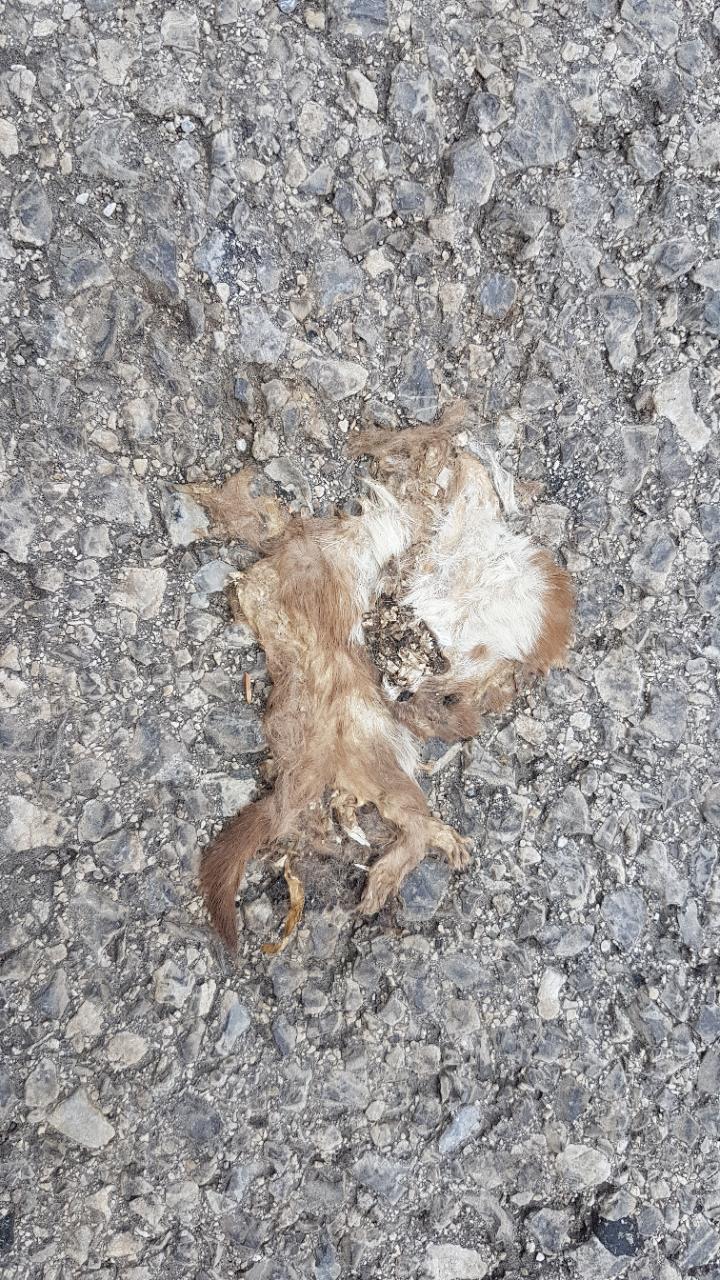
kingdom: Animalia
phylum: Chordata
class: Mammalia
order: Carnivora
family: Mustelidae
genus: Mustela
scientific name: Mustela nivalis
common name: Least weasel
